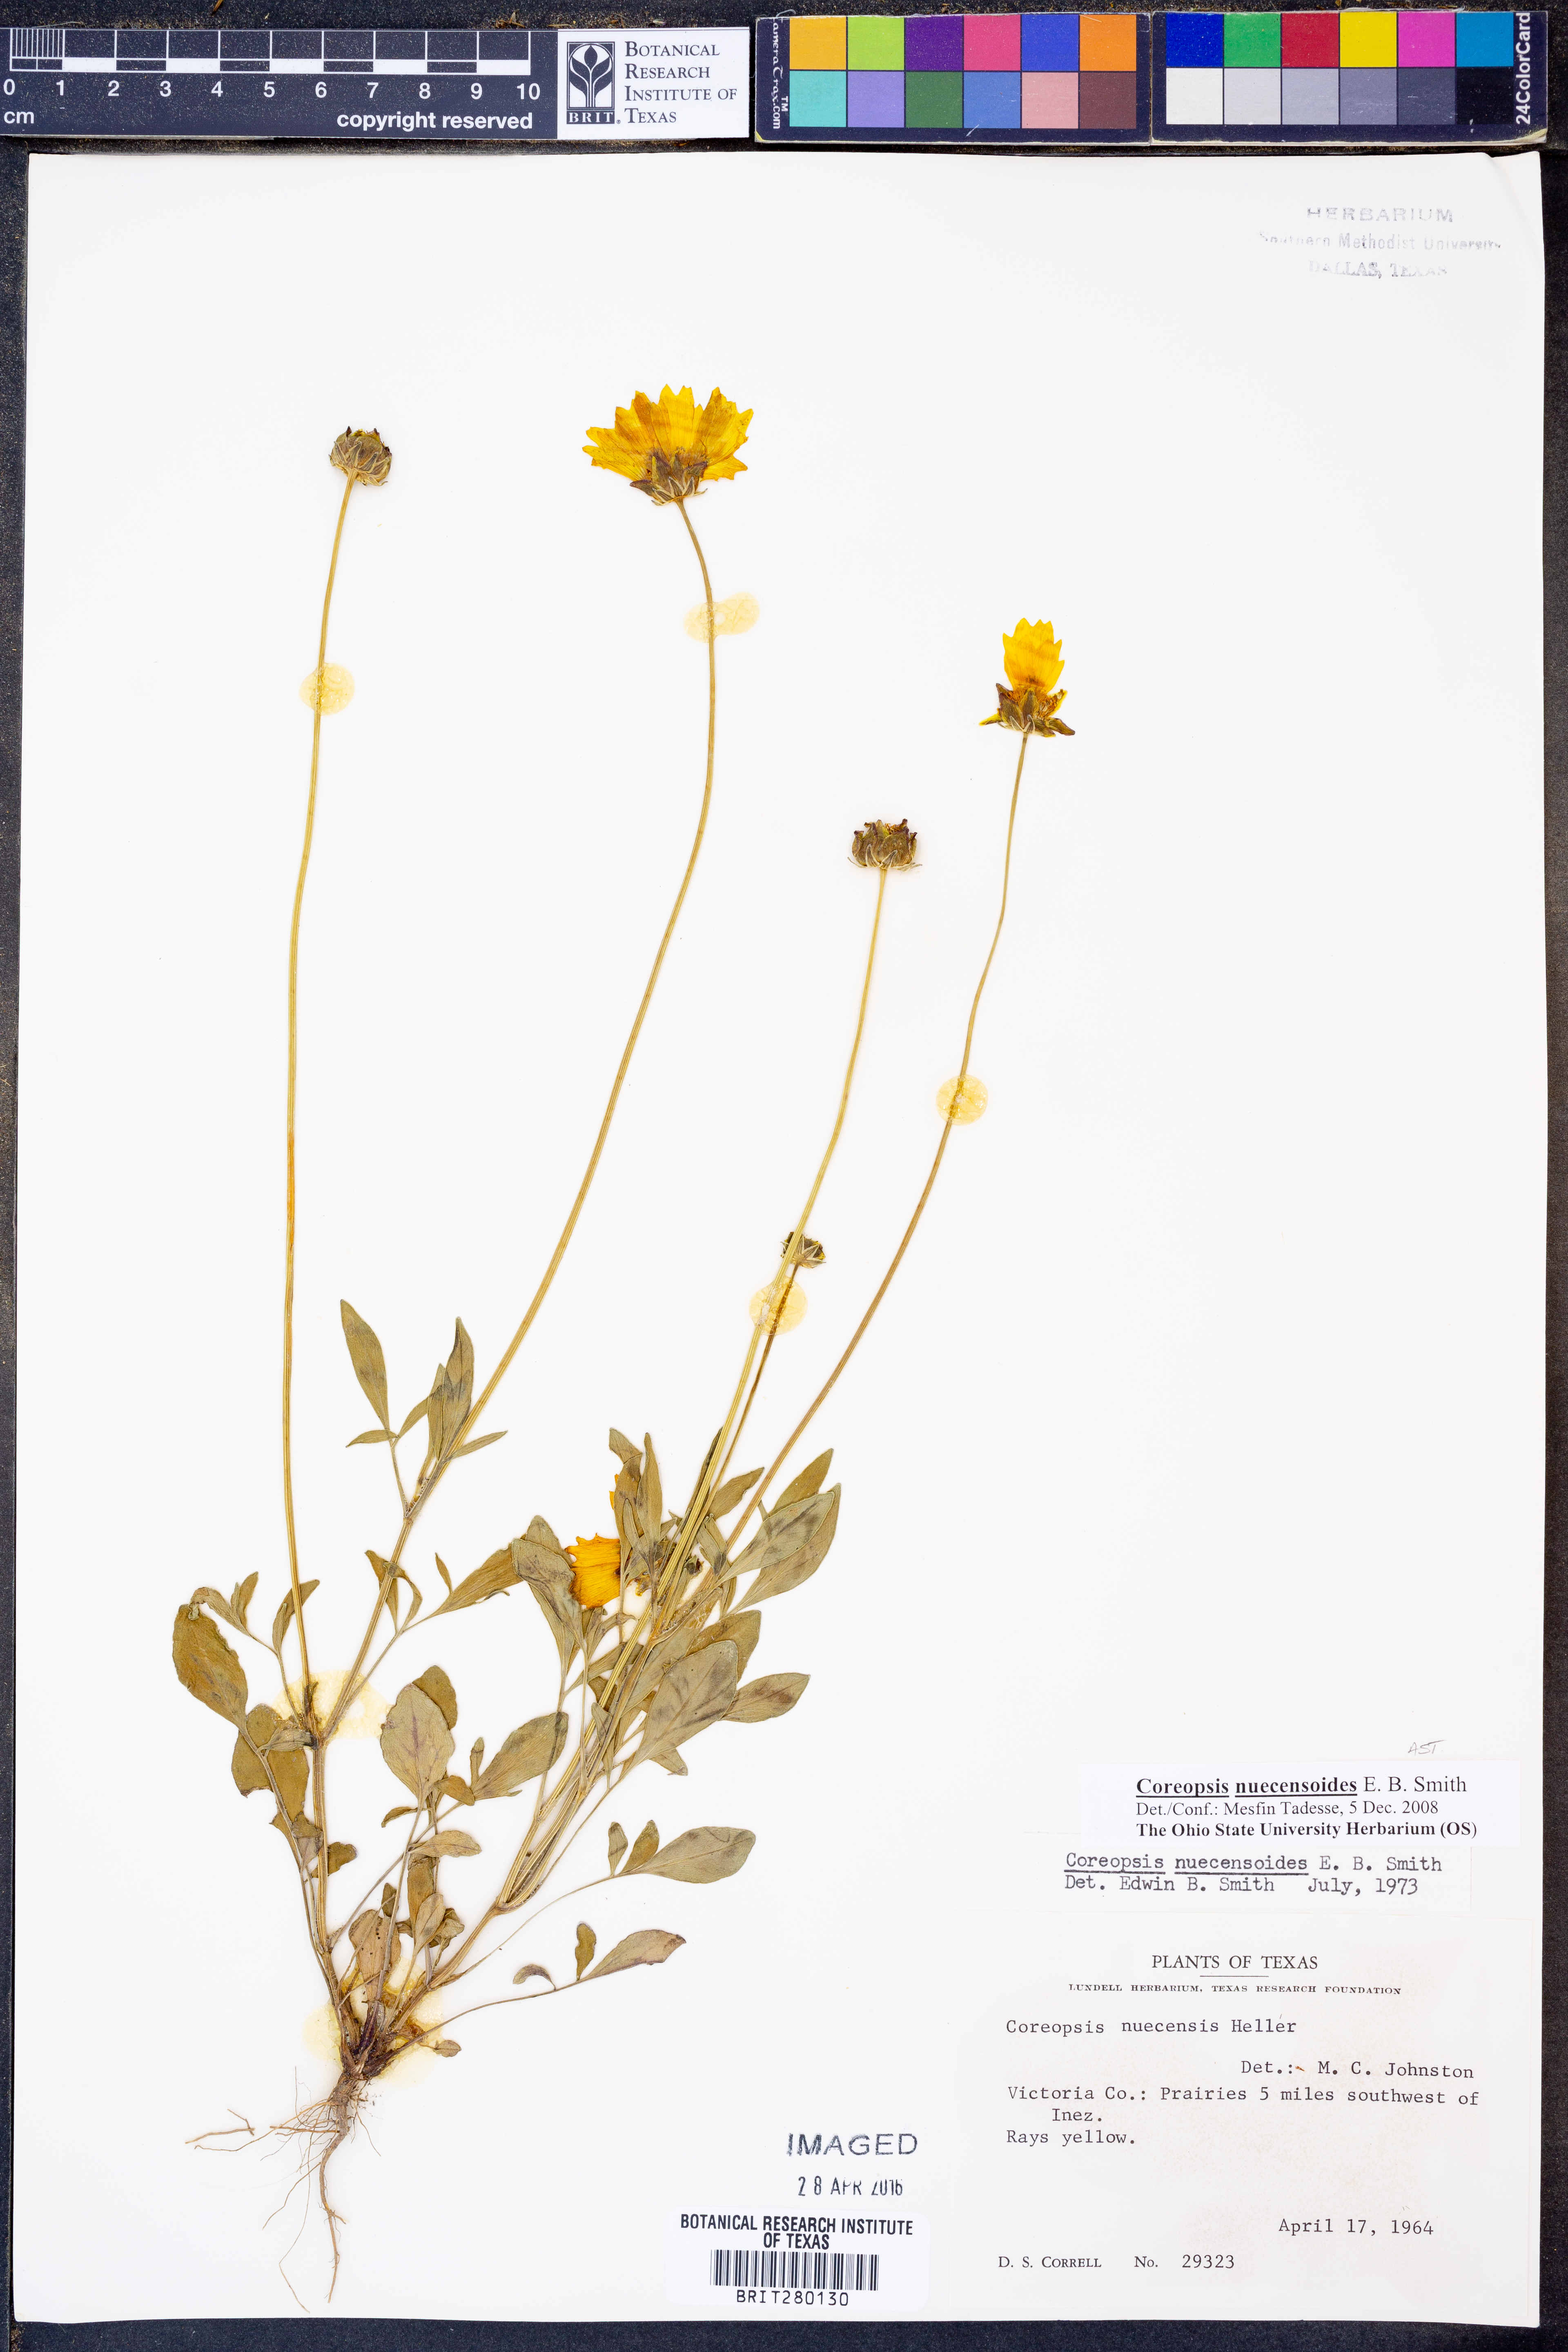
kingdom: Plantae
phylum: Tracheophyta
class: Magnoliopsida
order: Asterales
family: Asteraceae
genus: Coreopsis
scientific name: Coreopsis nuecensis
